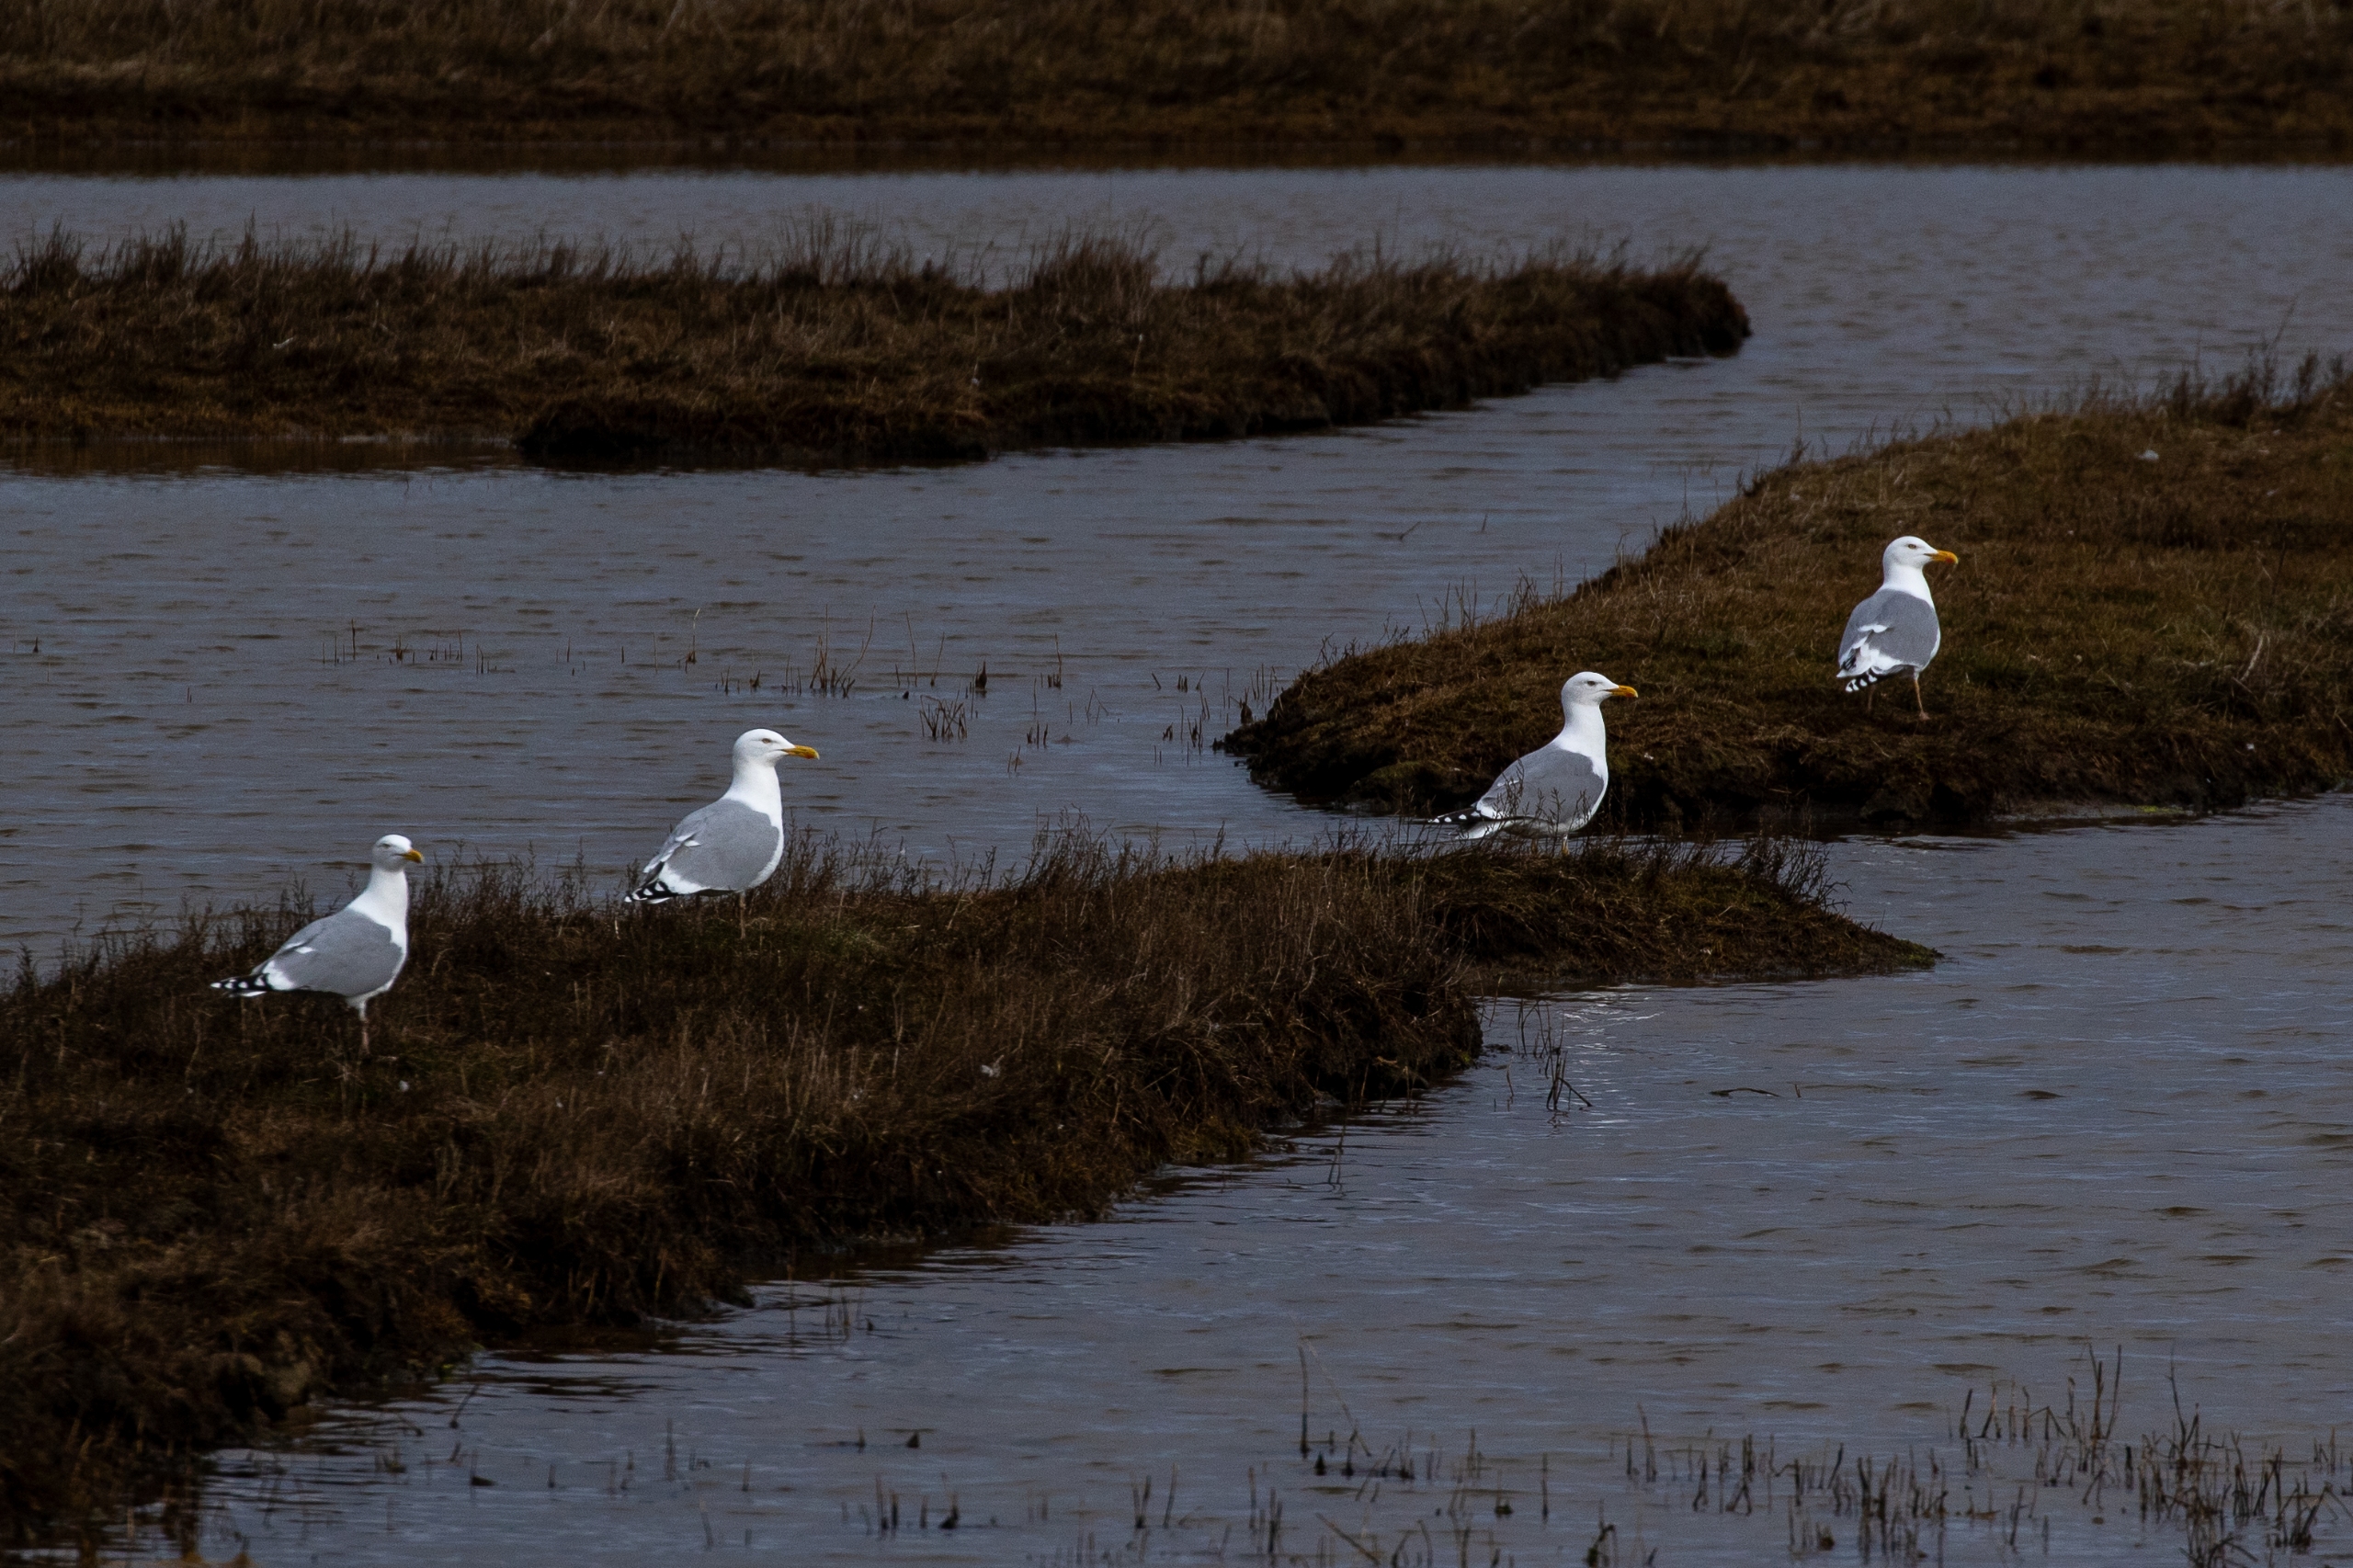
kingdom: Animalia
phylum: Chordata
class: Aves
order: Charadriiformes
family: Laridae
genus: Larus
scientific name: Larus argentatus
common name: Sølvmåge
